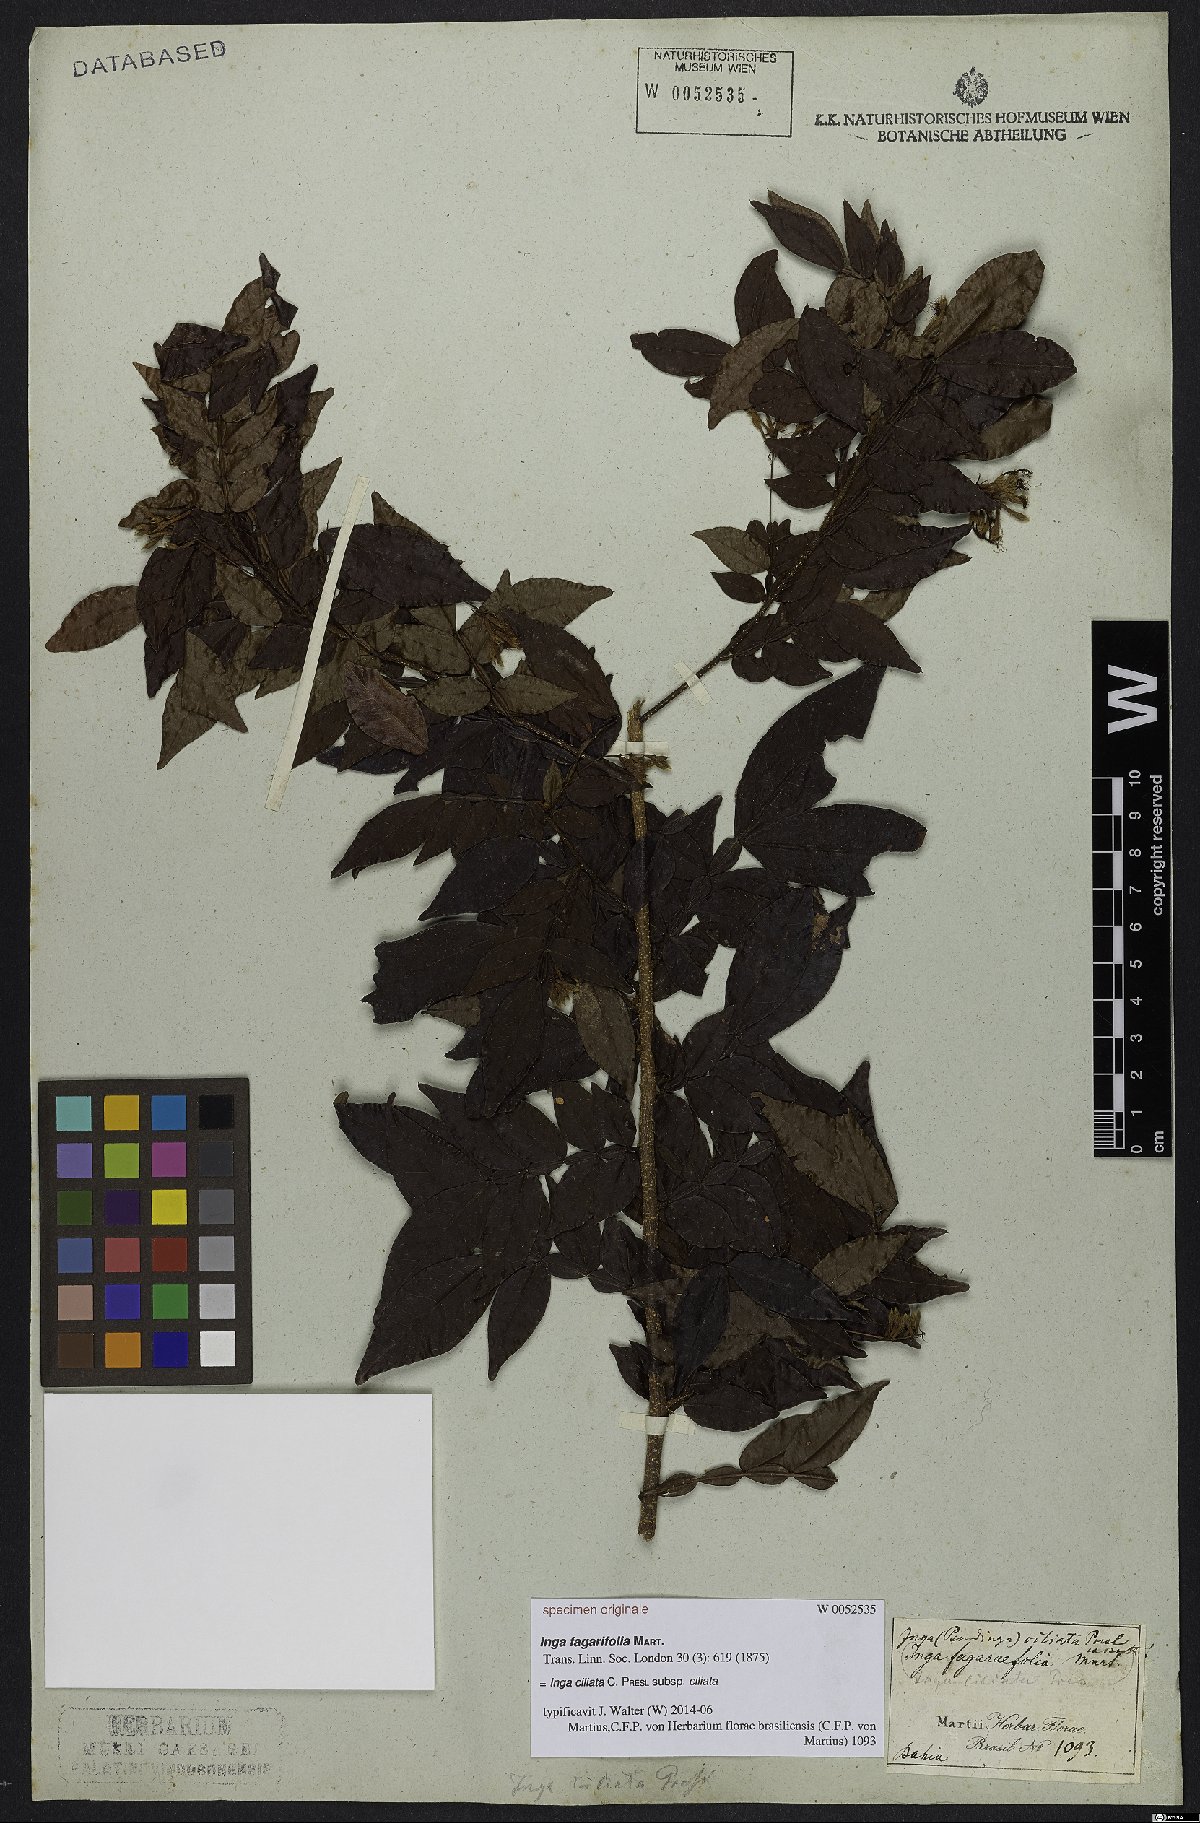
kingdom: Plantae
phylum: Tracheophyta
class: Magnoliopsida
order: Fabales
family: Fabaceae
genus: Inga
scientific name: Inga ciliata
